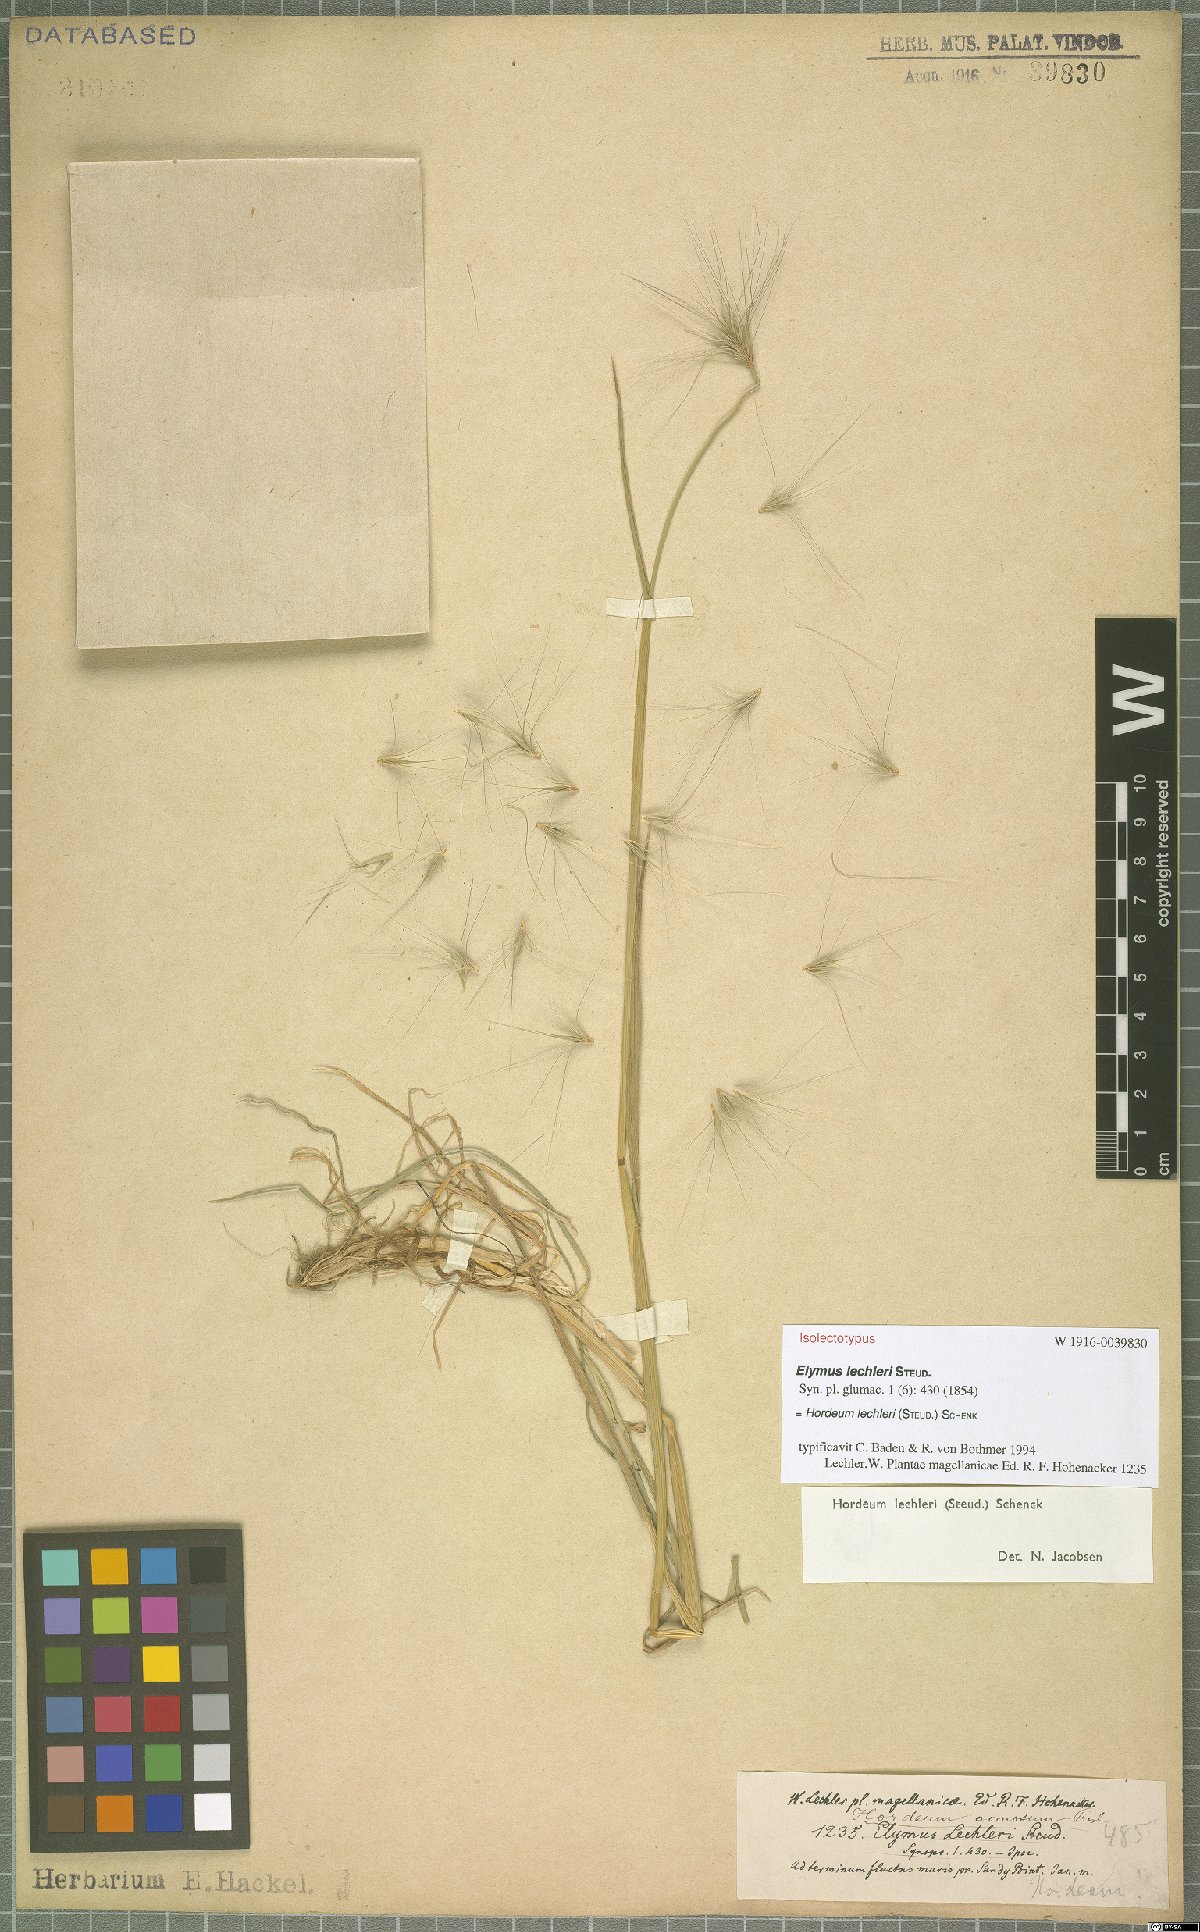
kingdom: Plantae
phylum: Tracheophyta
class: Liliopsida
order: Poales
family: Poaceae
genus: Hordeum
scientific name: Hordeum lechleri
